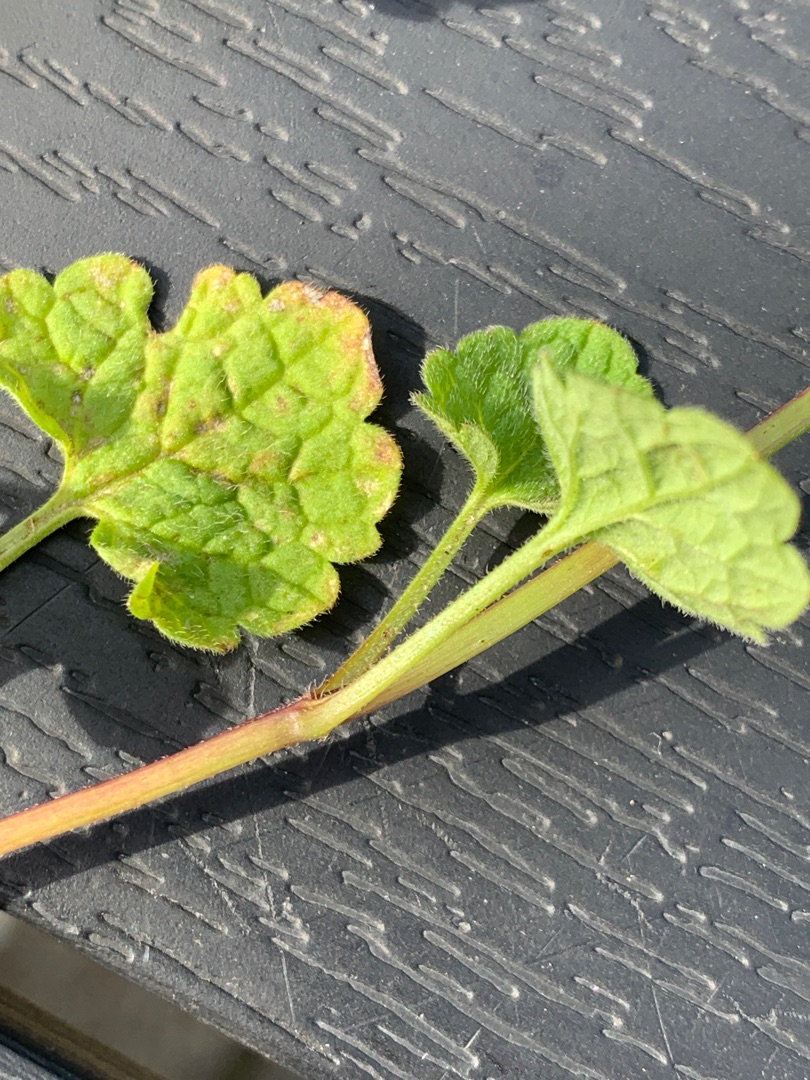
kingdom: Plantae
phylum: Tracheophyta
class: Magnoliopsida
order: Lamiales
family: Lamiaceae
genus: Lamium
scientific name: Lamium confertum
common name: Nyrebladet tvetand
